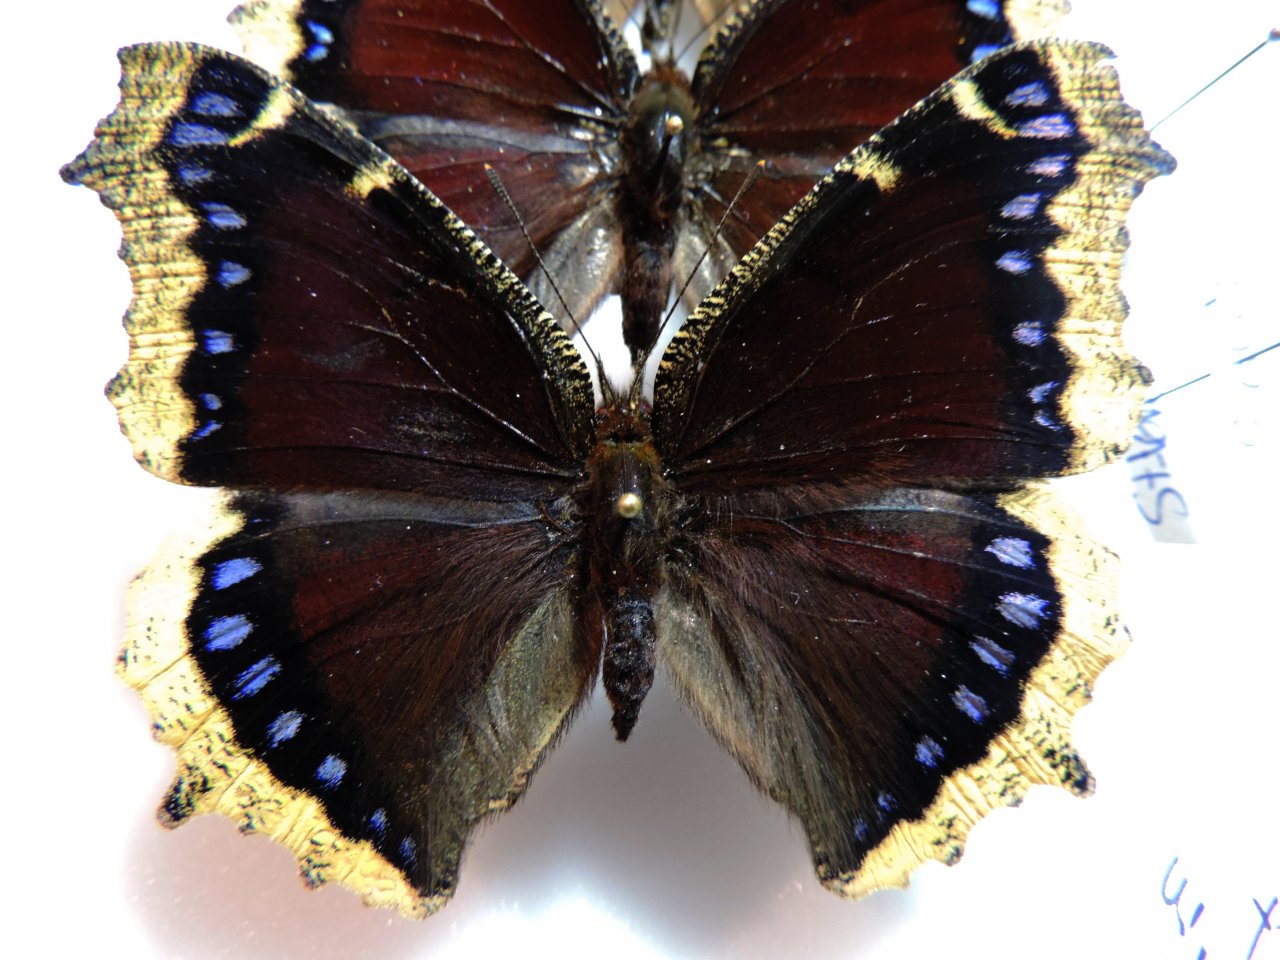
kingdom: Animalia
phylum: Arthropoda
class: Insecta
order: Lepidoptera
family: Nymphalidae
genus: Nymphalis
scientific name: Nymphalis antiopa
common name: Mourning Cloak
